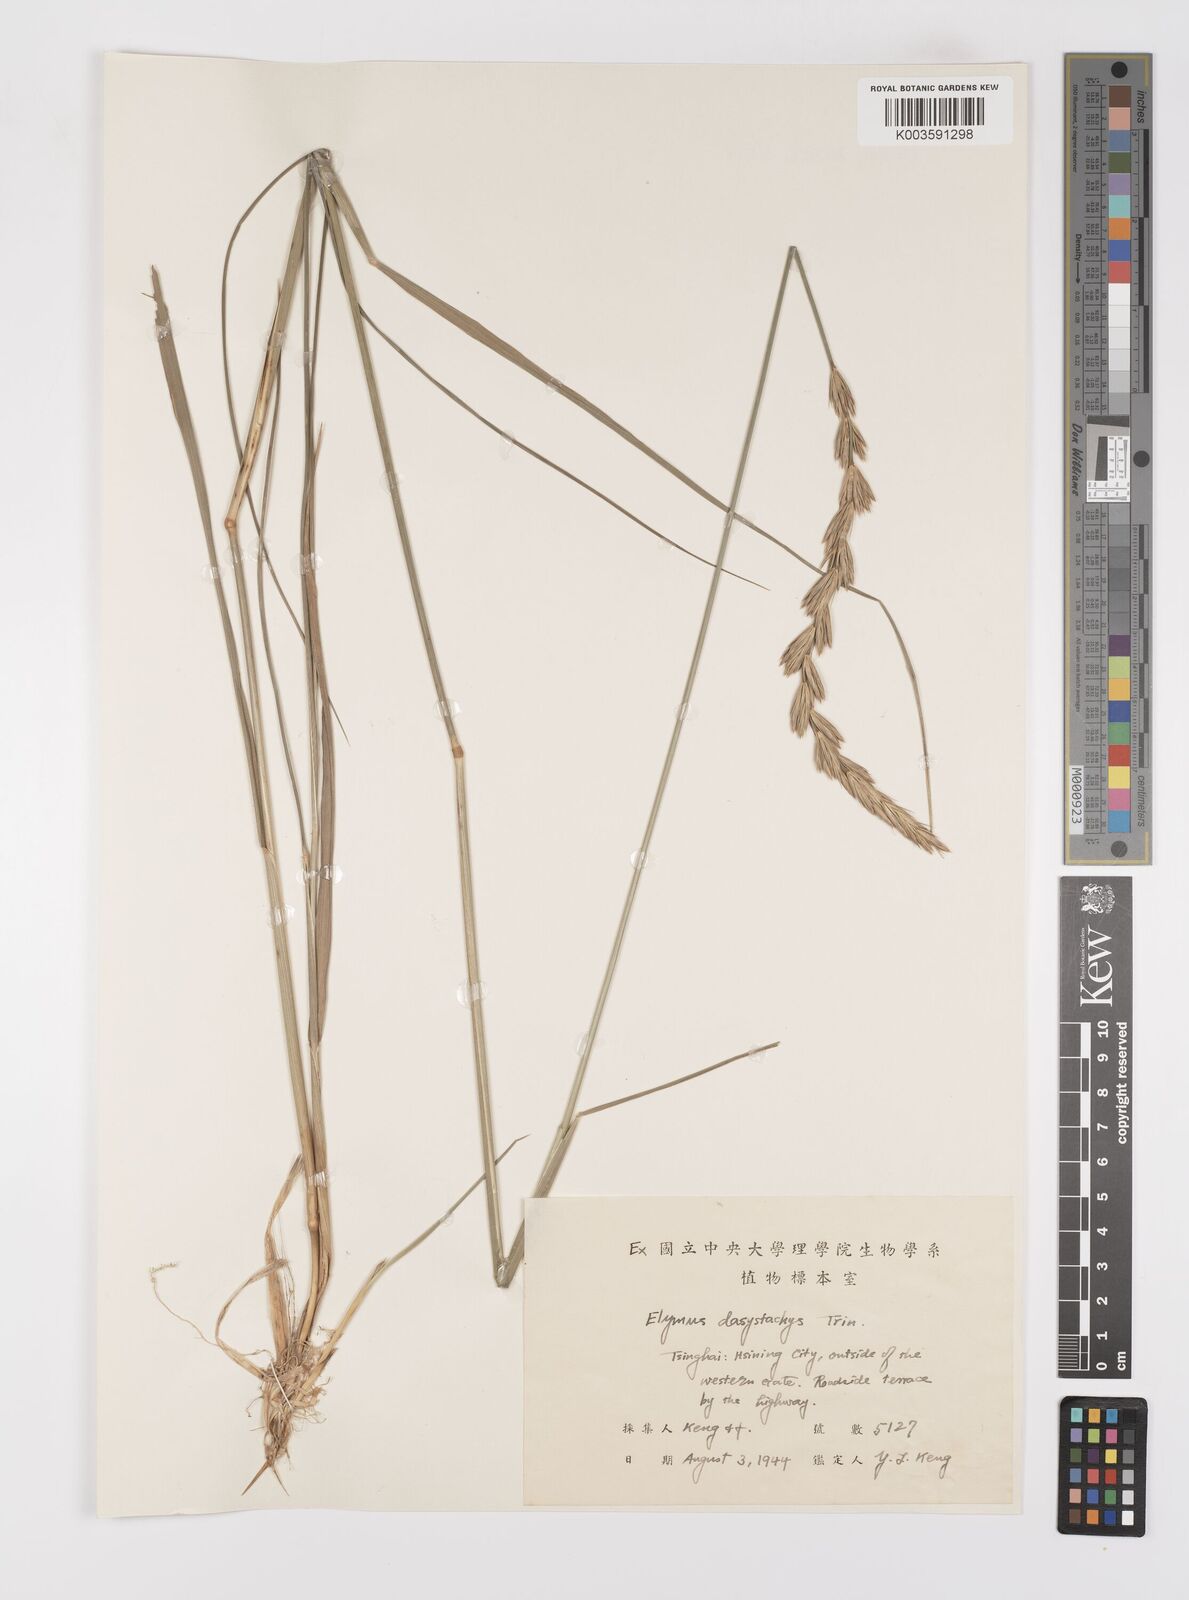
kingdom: Plantae
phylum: Tracheophyta
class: Liliopsida
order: Poales
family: Poaceae
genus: Leymus
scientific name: Leymus secalinus
